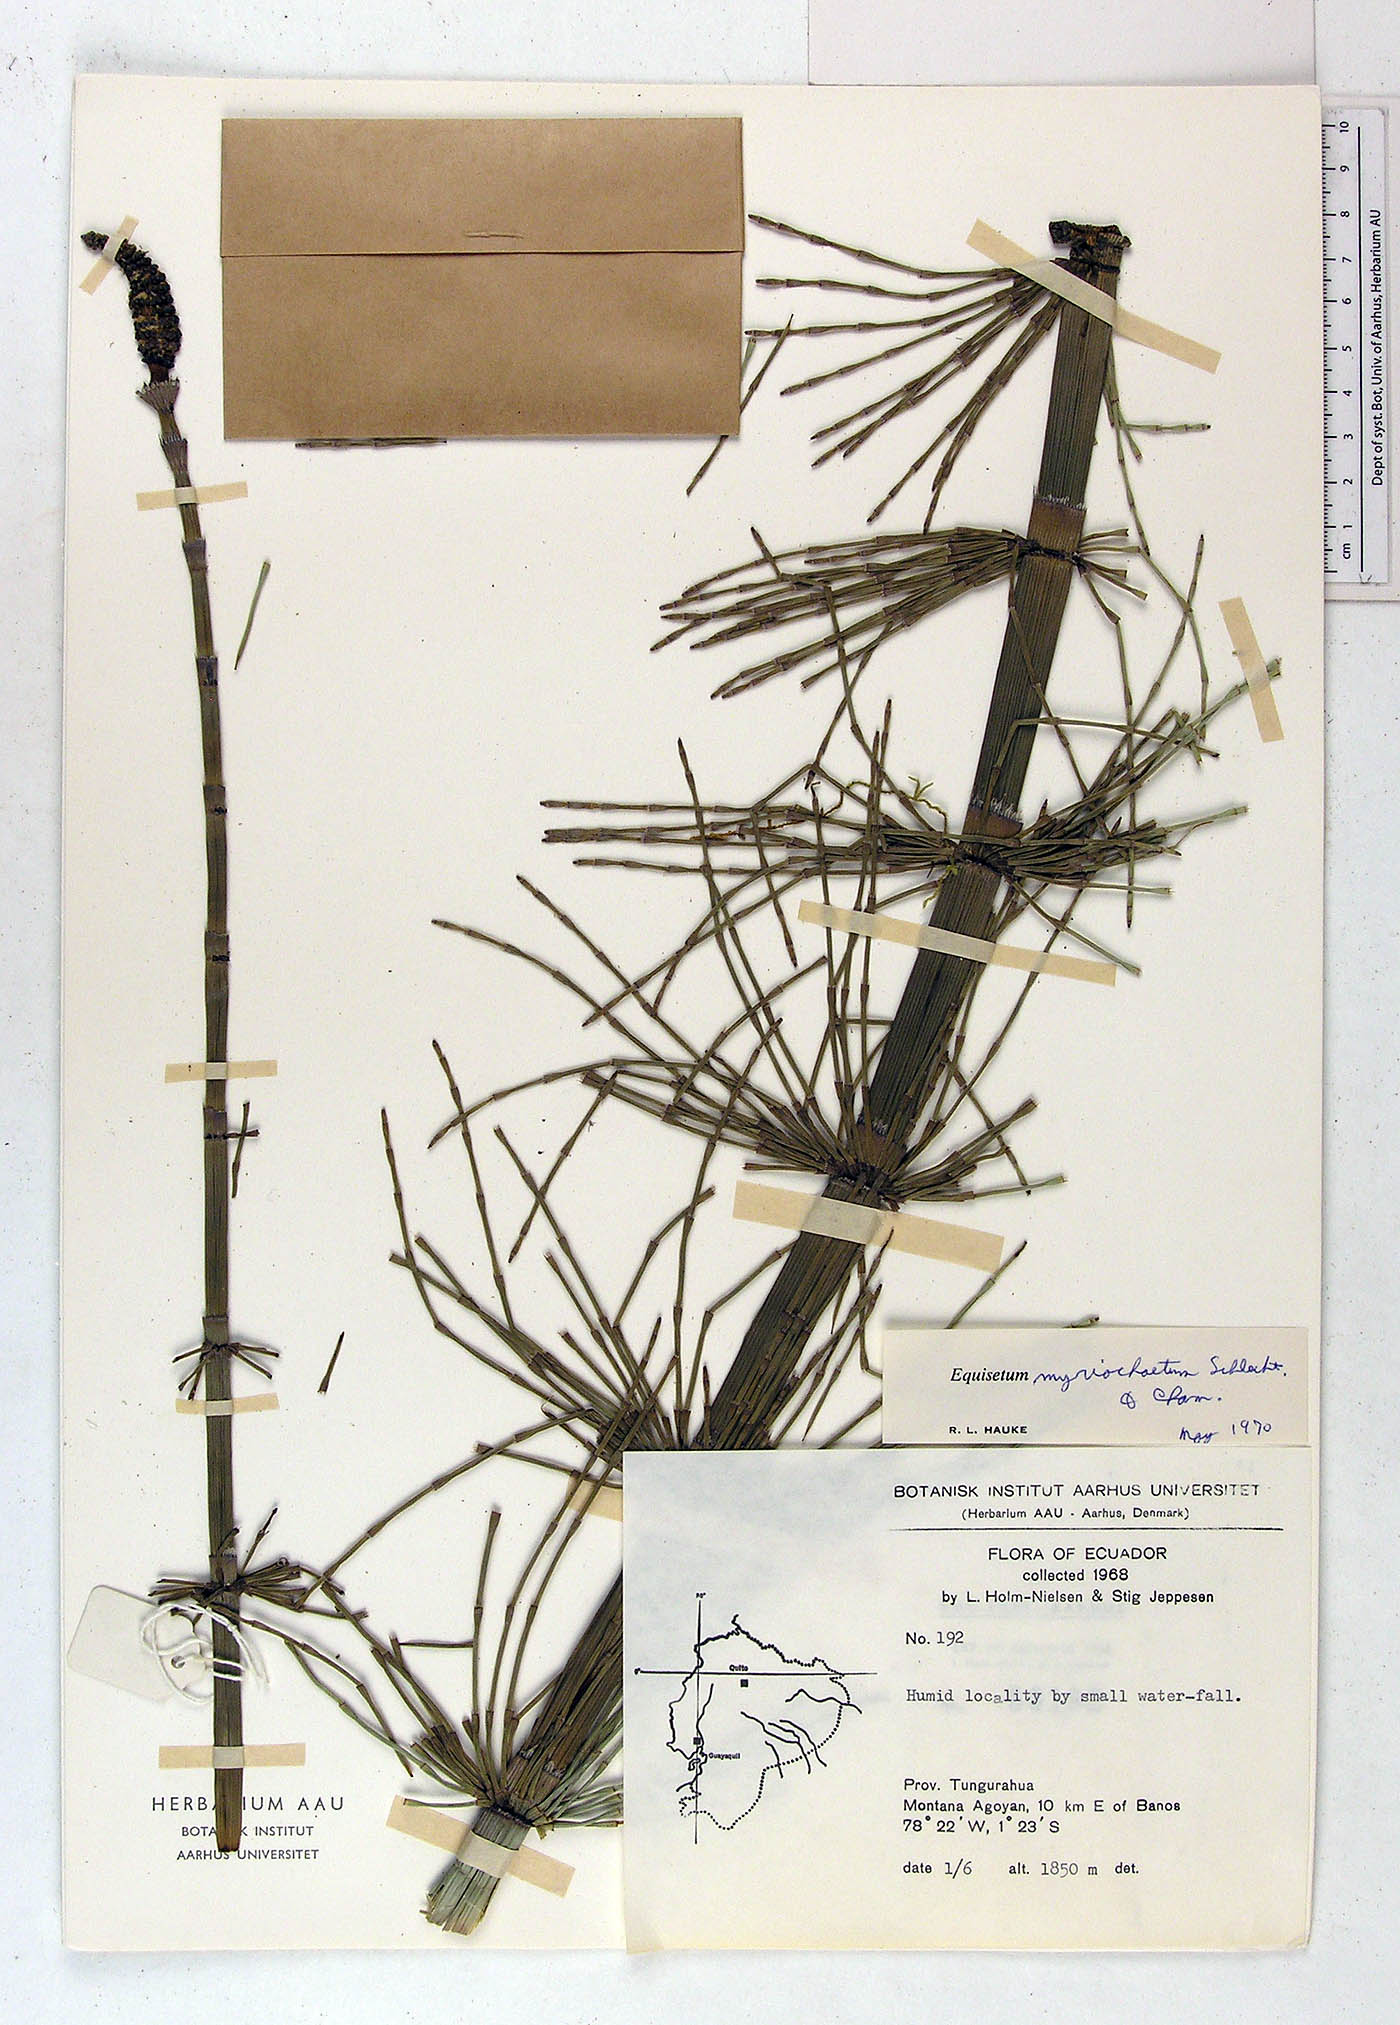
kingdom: Plantae
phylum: Tracheophyta
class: Polypodiopsida
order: Equisetales
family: Equisetaceae
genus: Equisetum
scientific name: Equisetum myriochaetum
